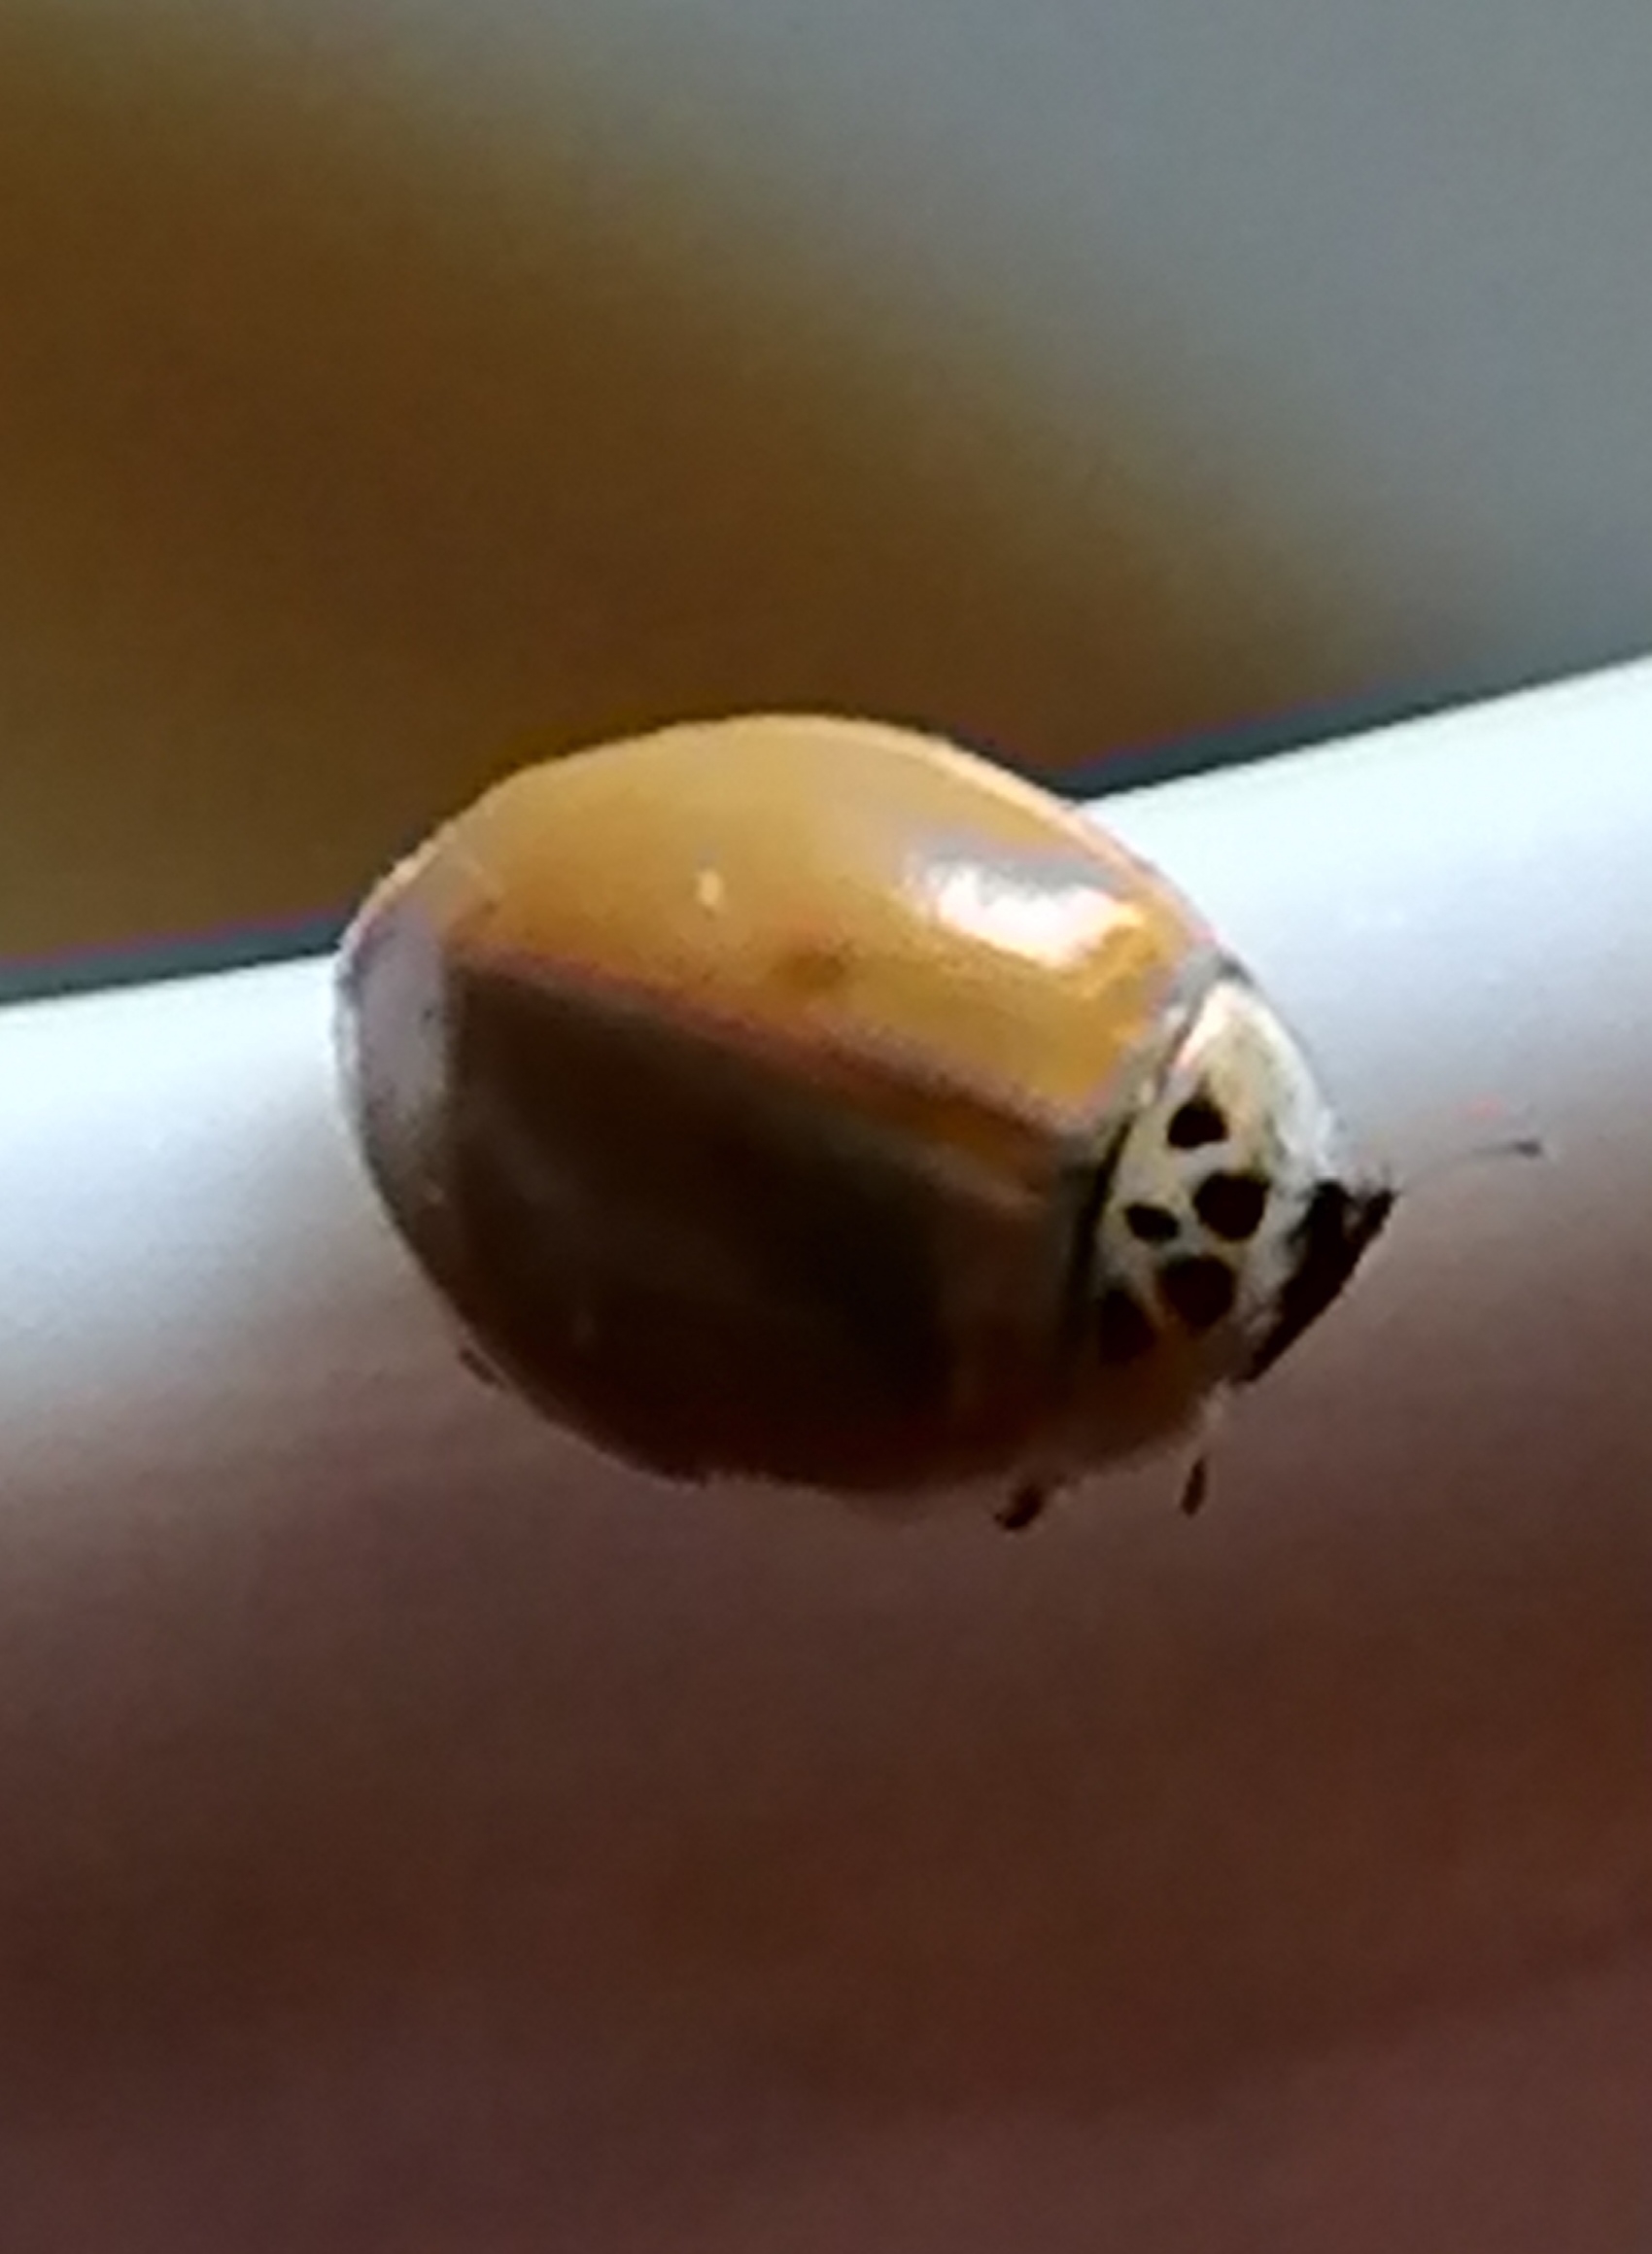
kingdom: Animalia
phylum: Arthropoda
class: Insecta
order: Coleoptera
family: Coccinellidae
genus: Adalia
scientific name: Adalia decempunctata
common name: Tiplettet mariehøne
